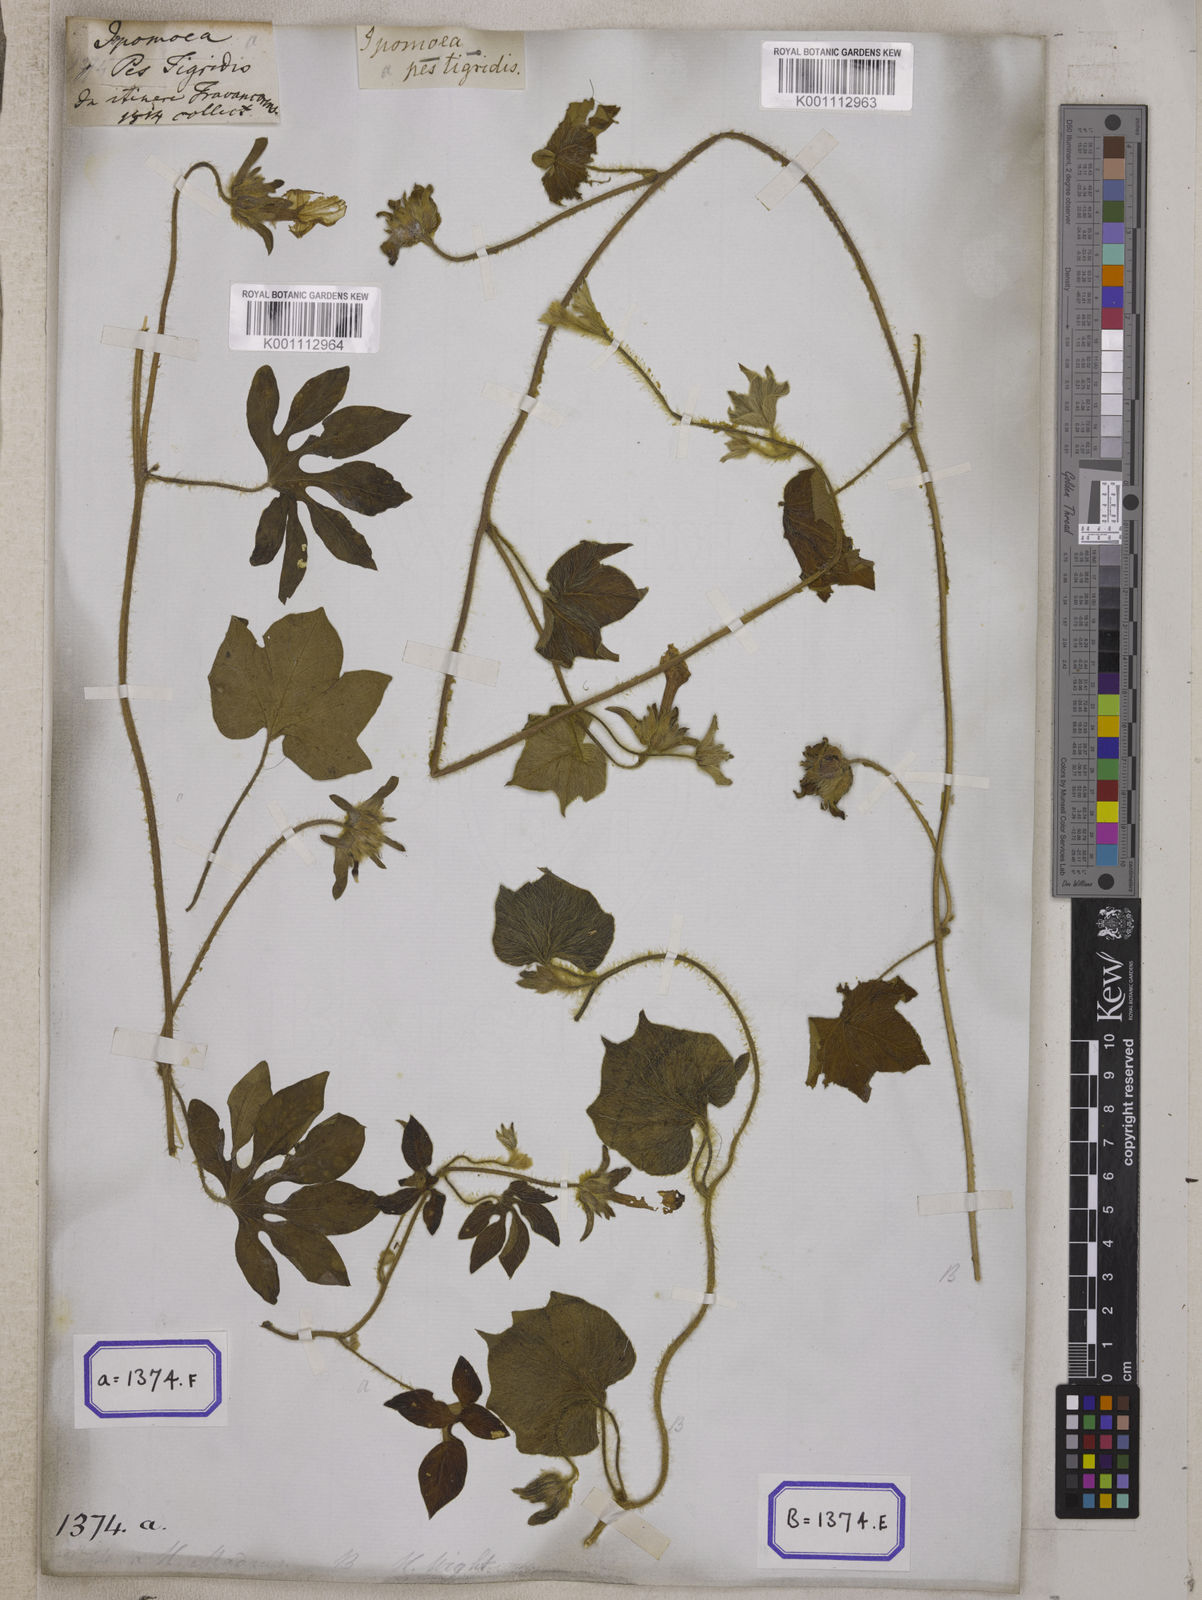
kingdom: Plantae
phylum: Tracheophyta
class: Magnoliopsida
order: Solanales
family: Convolvulaceae
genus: Ipomoea
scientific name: Ipomoea pes-tigridis
